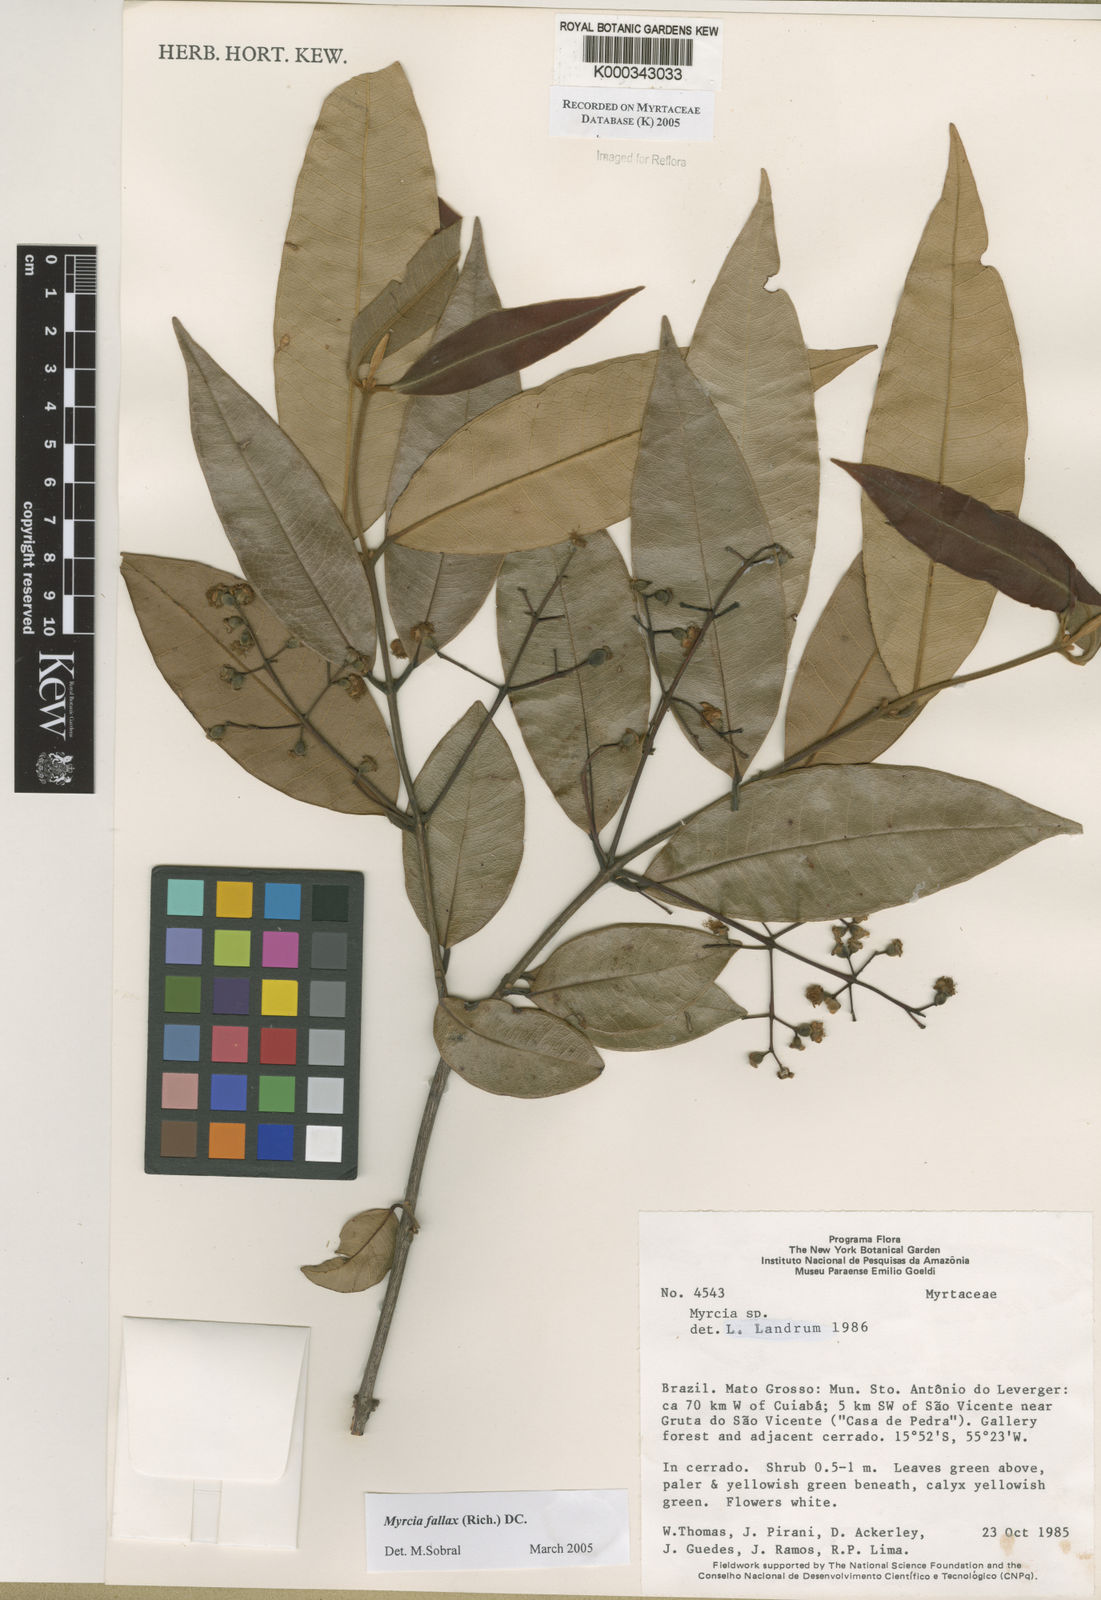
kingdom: Plantae
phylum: Tracheophyta
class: Magnoliopsida
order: Myrtales
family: Myrtaceae
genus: Myrcia
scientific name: Myrcia splendens
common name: Surinam cherry
